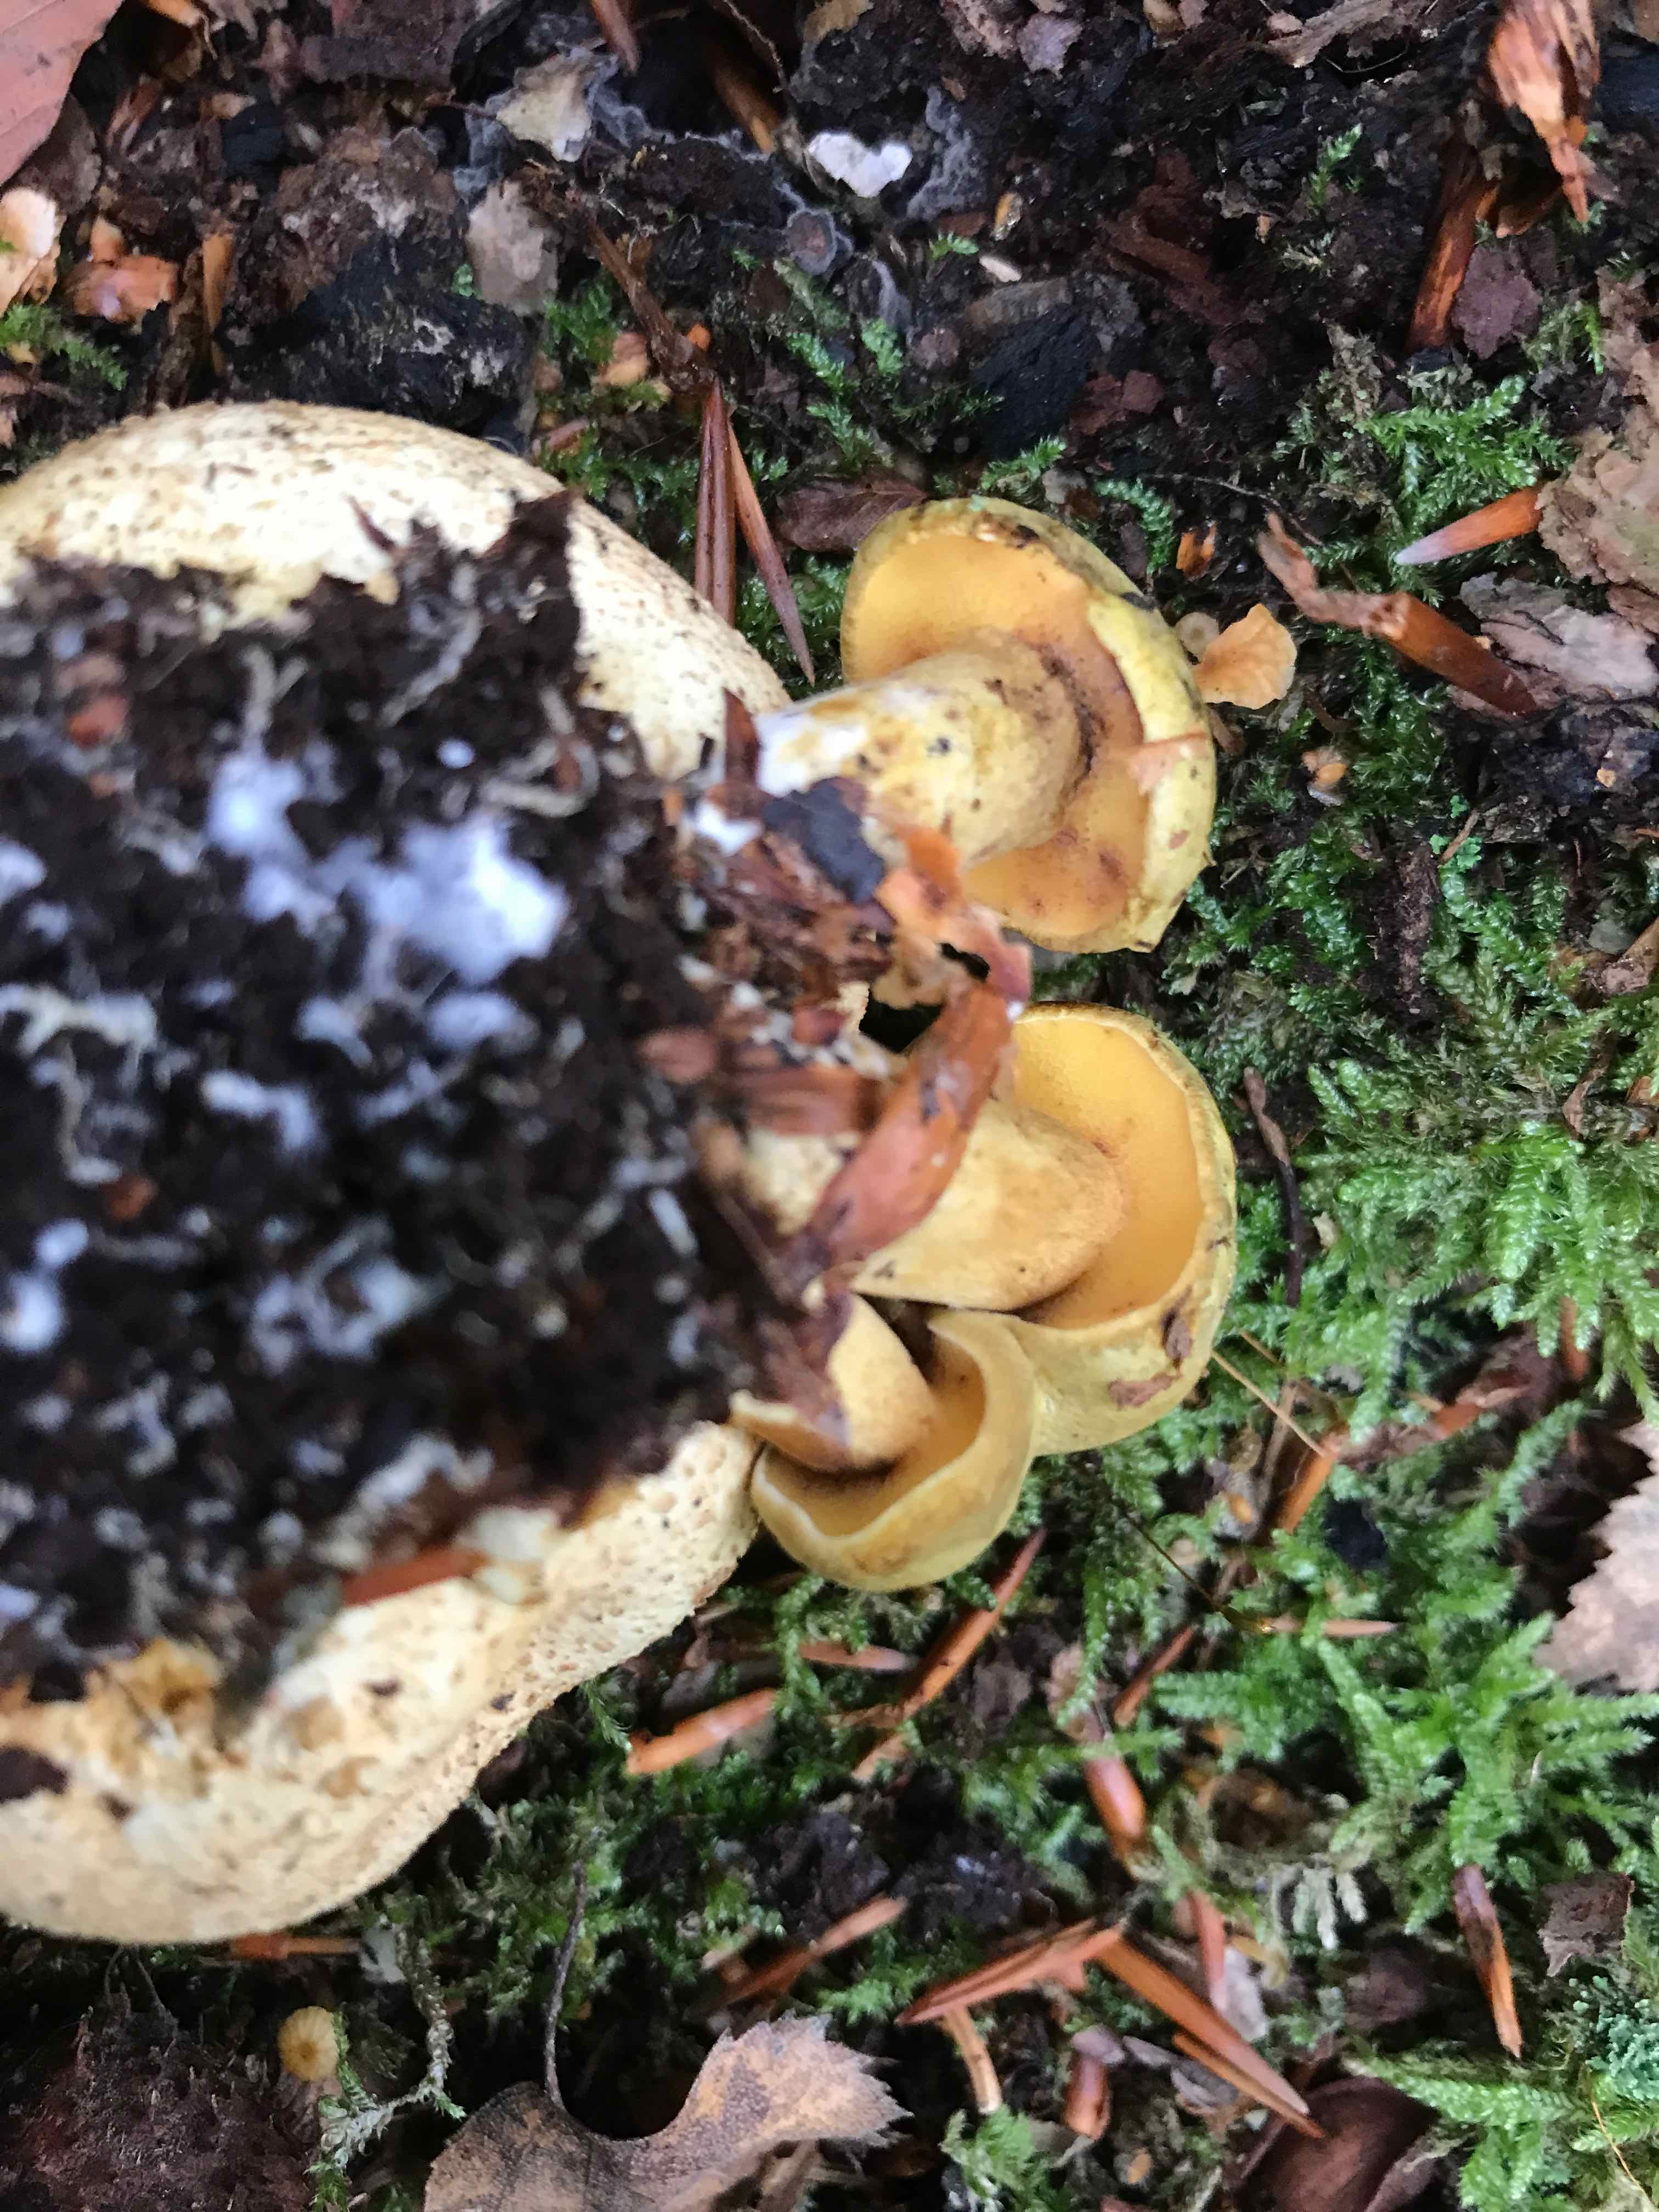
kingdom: Fungi
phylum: Basidiomycota
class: Agaricomycetes
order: Boletales
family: Boletaceae
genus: Pseudoboletus
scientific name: Pseudoboletus parasiticus
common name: snyltende rørhat
